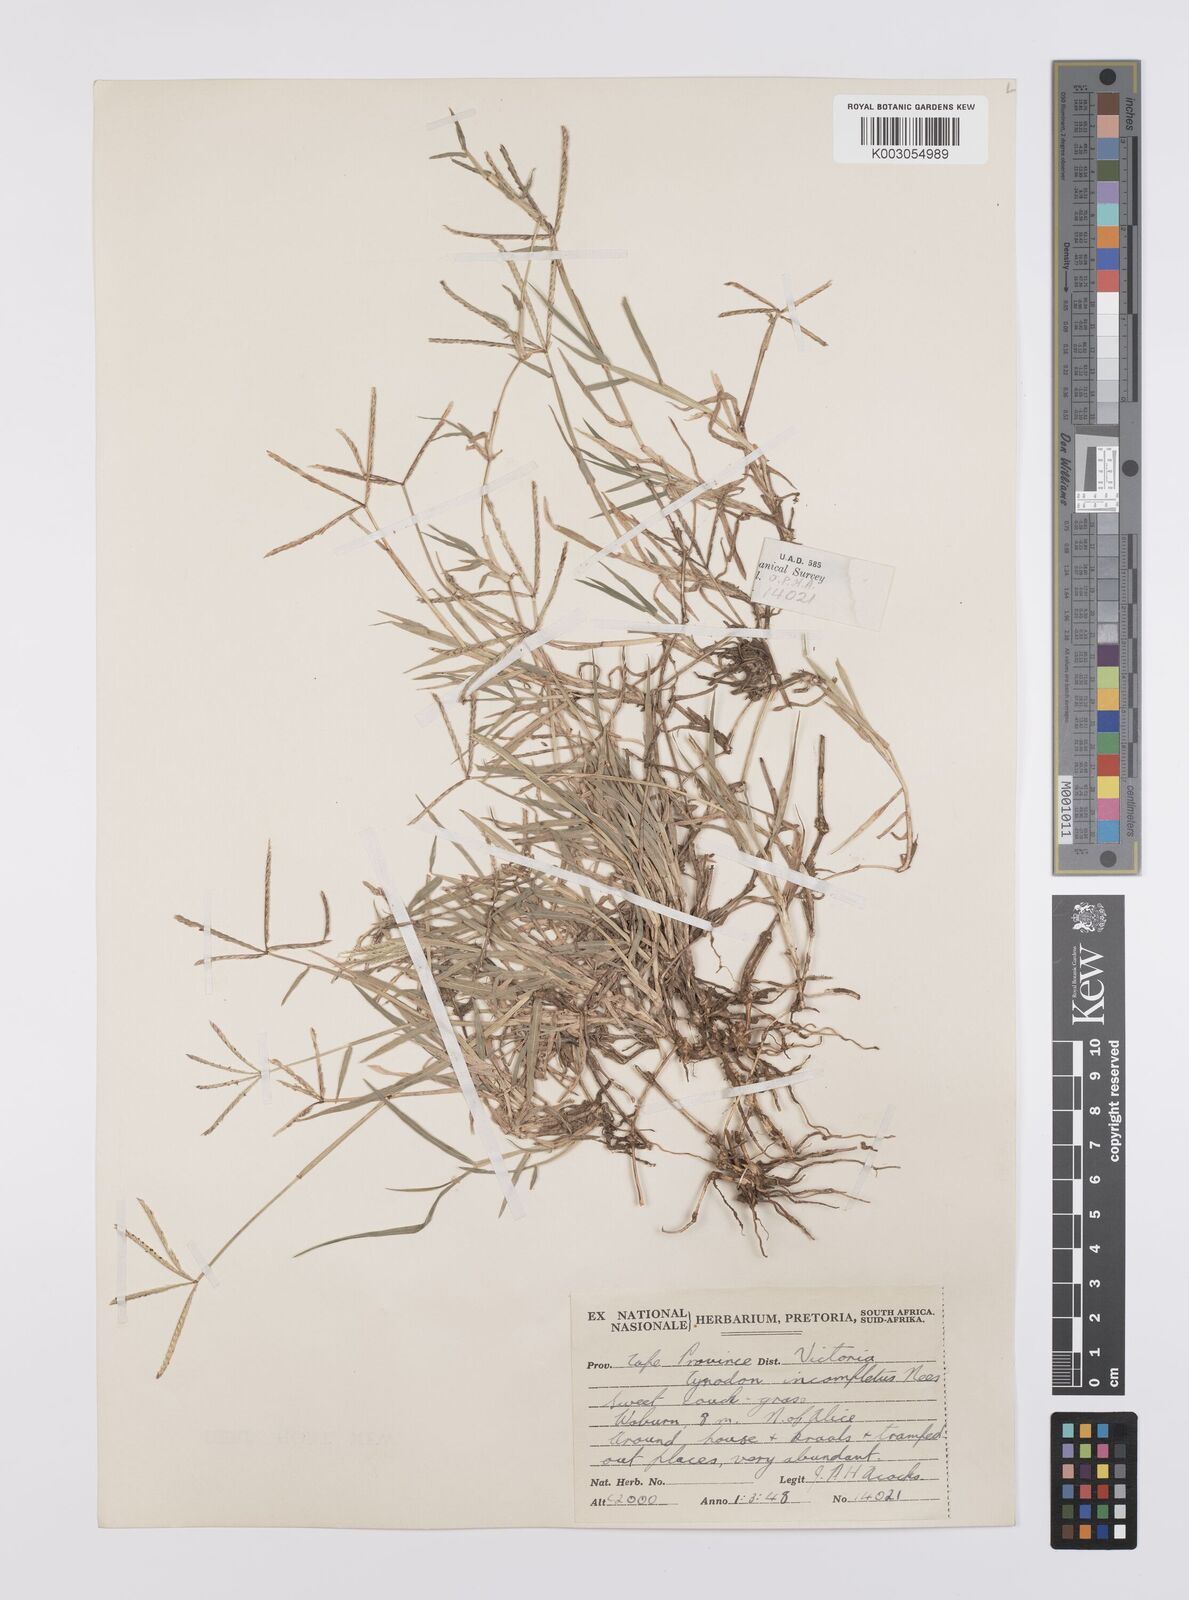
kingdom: Plantae
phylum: Tracheophyta
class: Liliopsida
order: Poales
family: Poaceae
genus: Cynodon
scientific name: Cynodon incompletus
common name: African bermuda-grass
